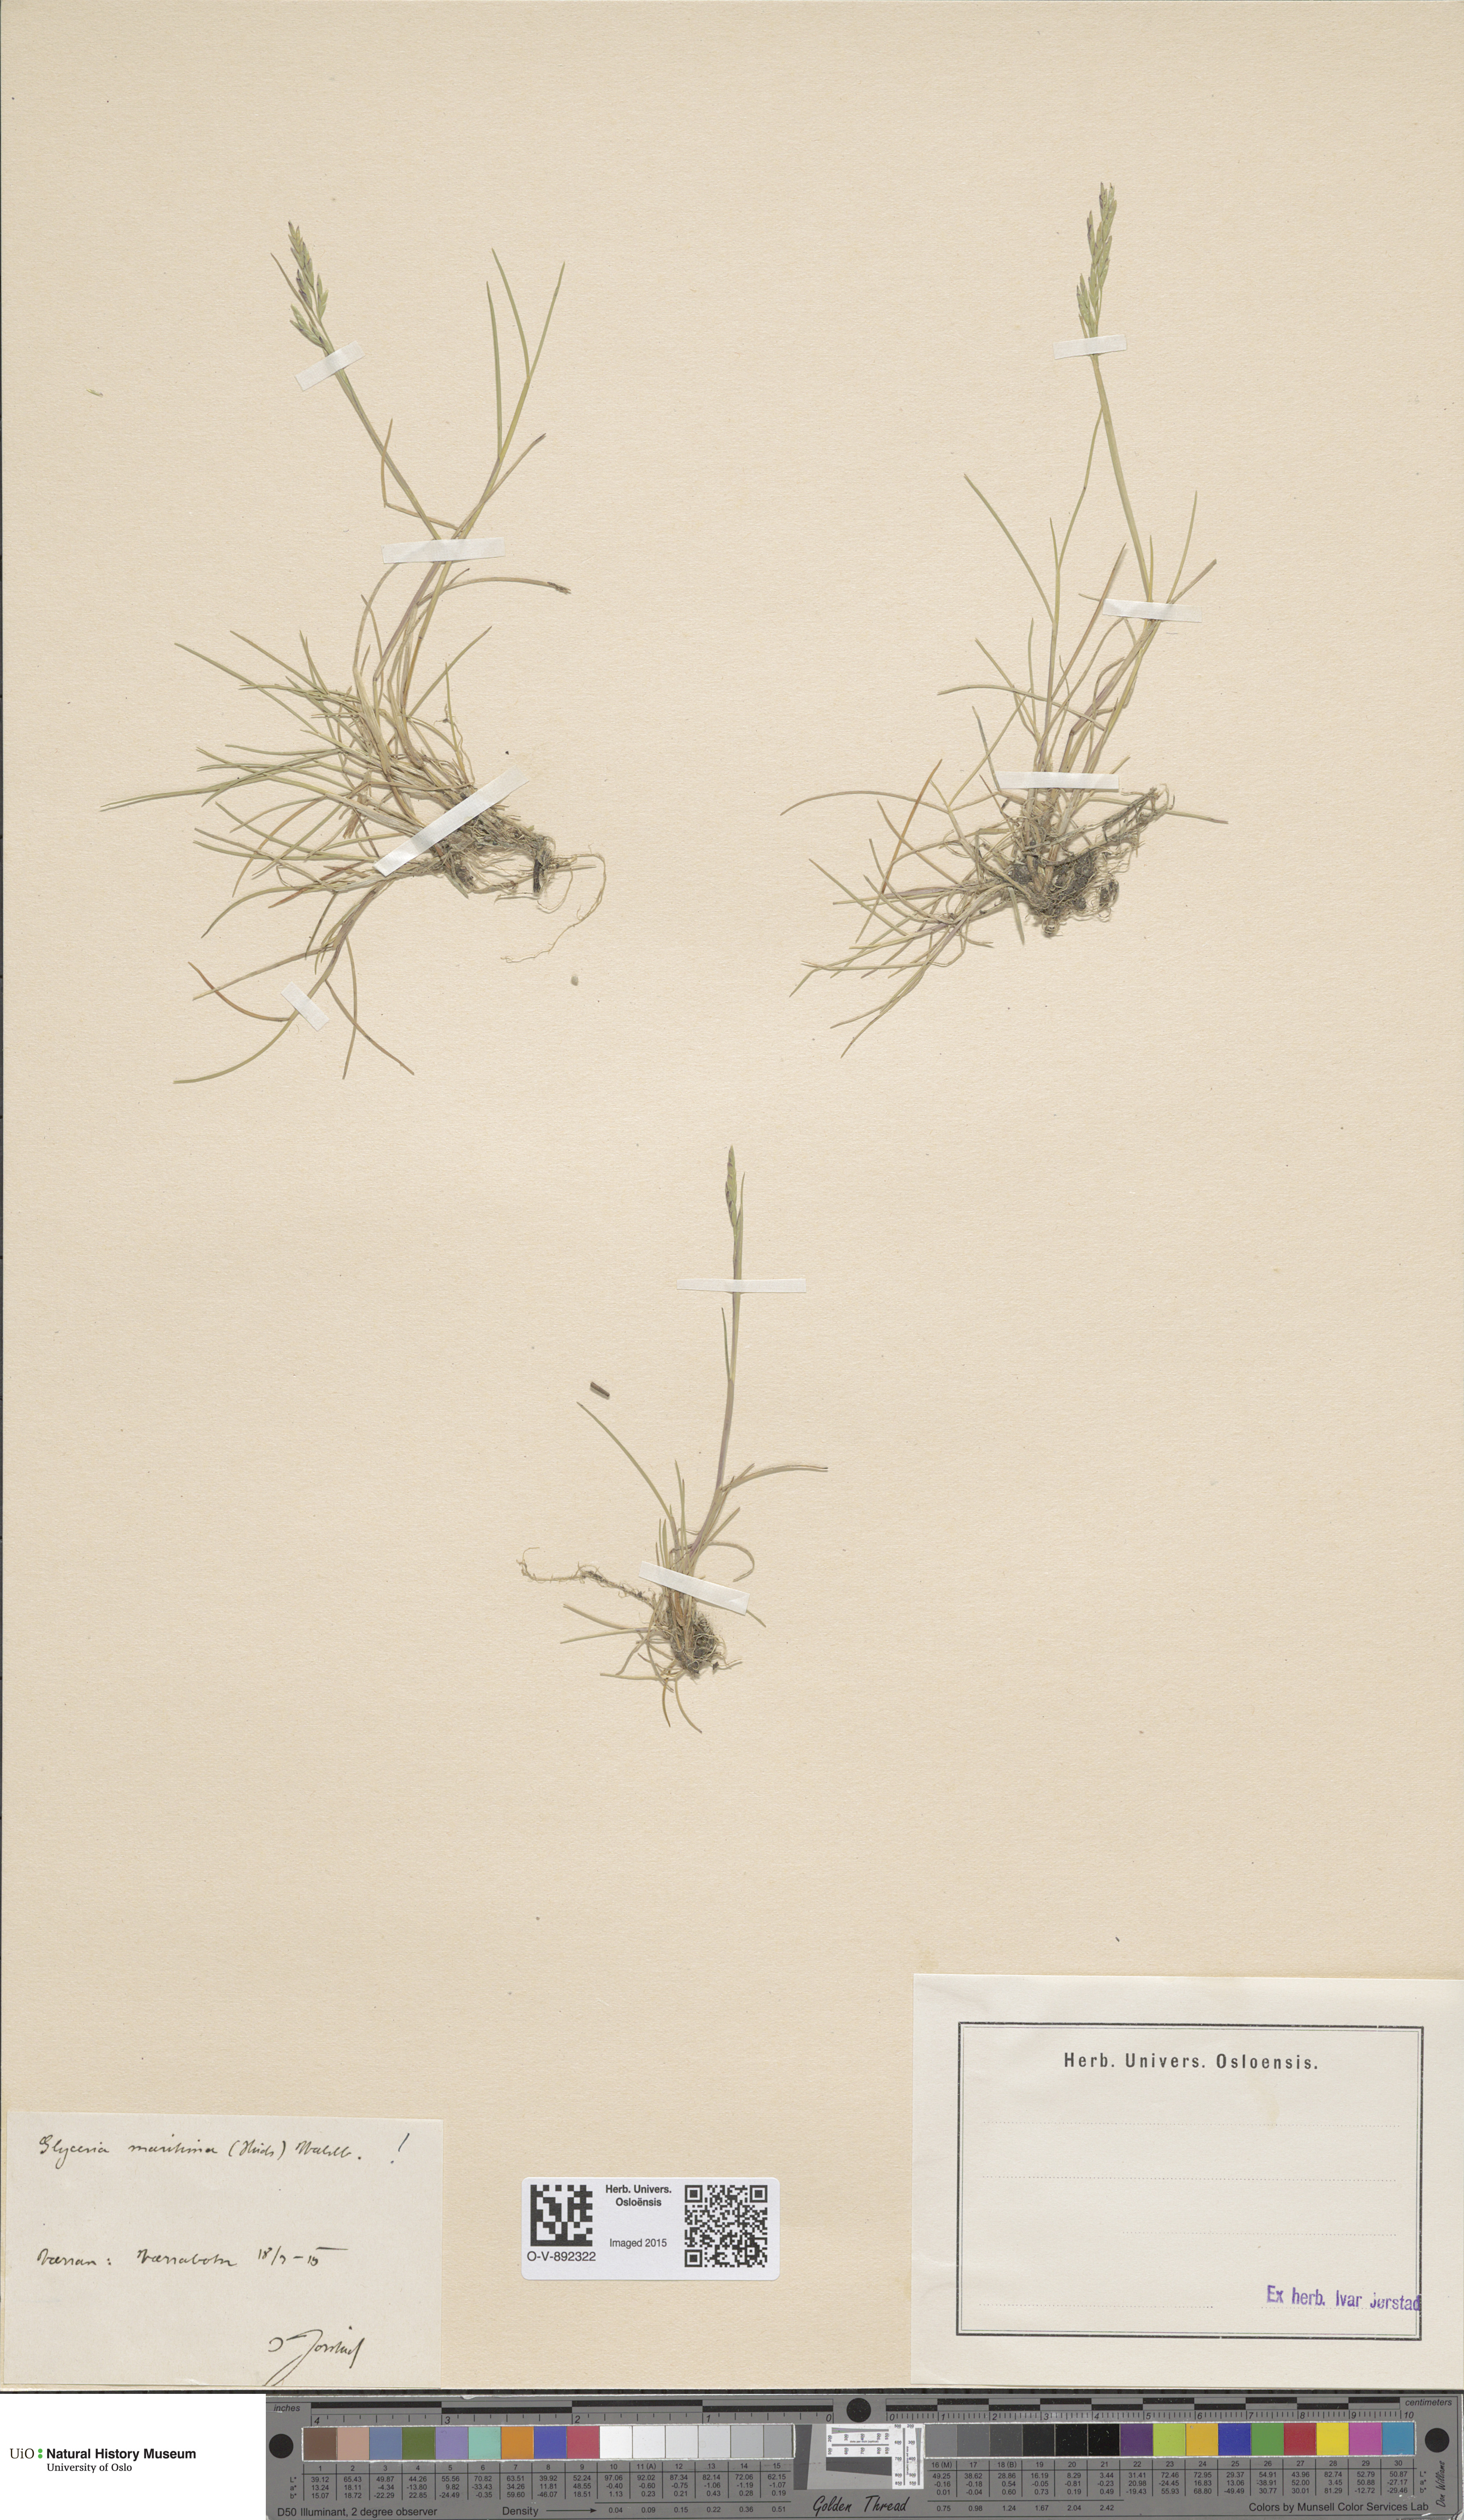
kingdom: Plantae
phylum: Tracheophyta
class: Liliopsida
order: Poales
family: Poaceae
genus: Puccinellia
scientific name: Puccinellia maritima
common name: Common saltmarsh grass
